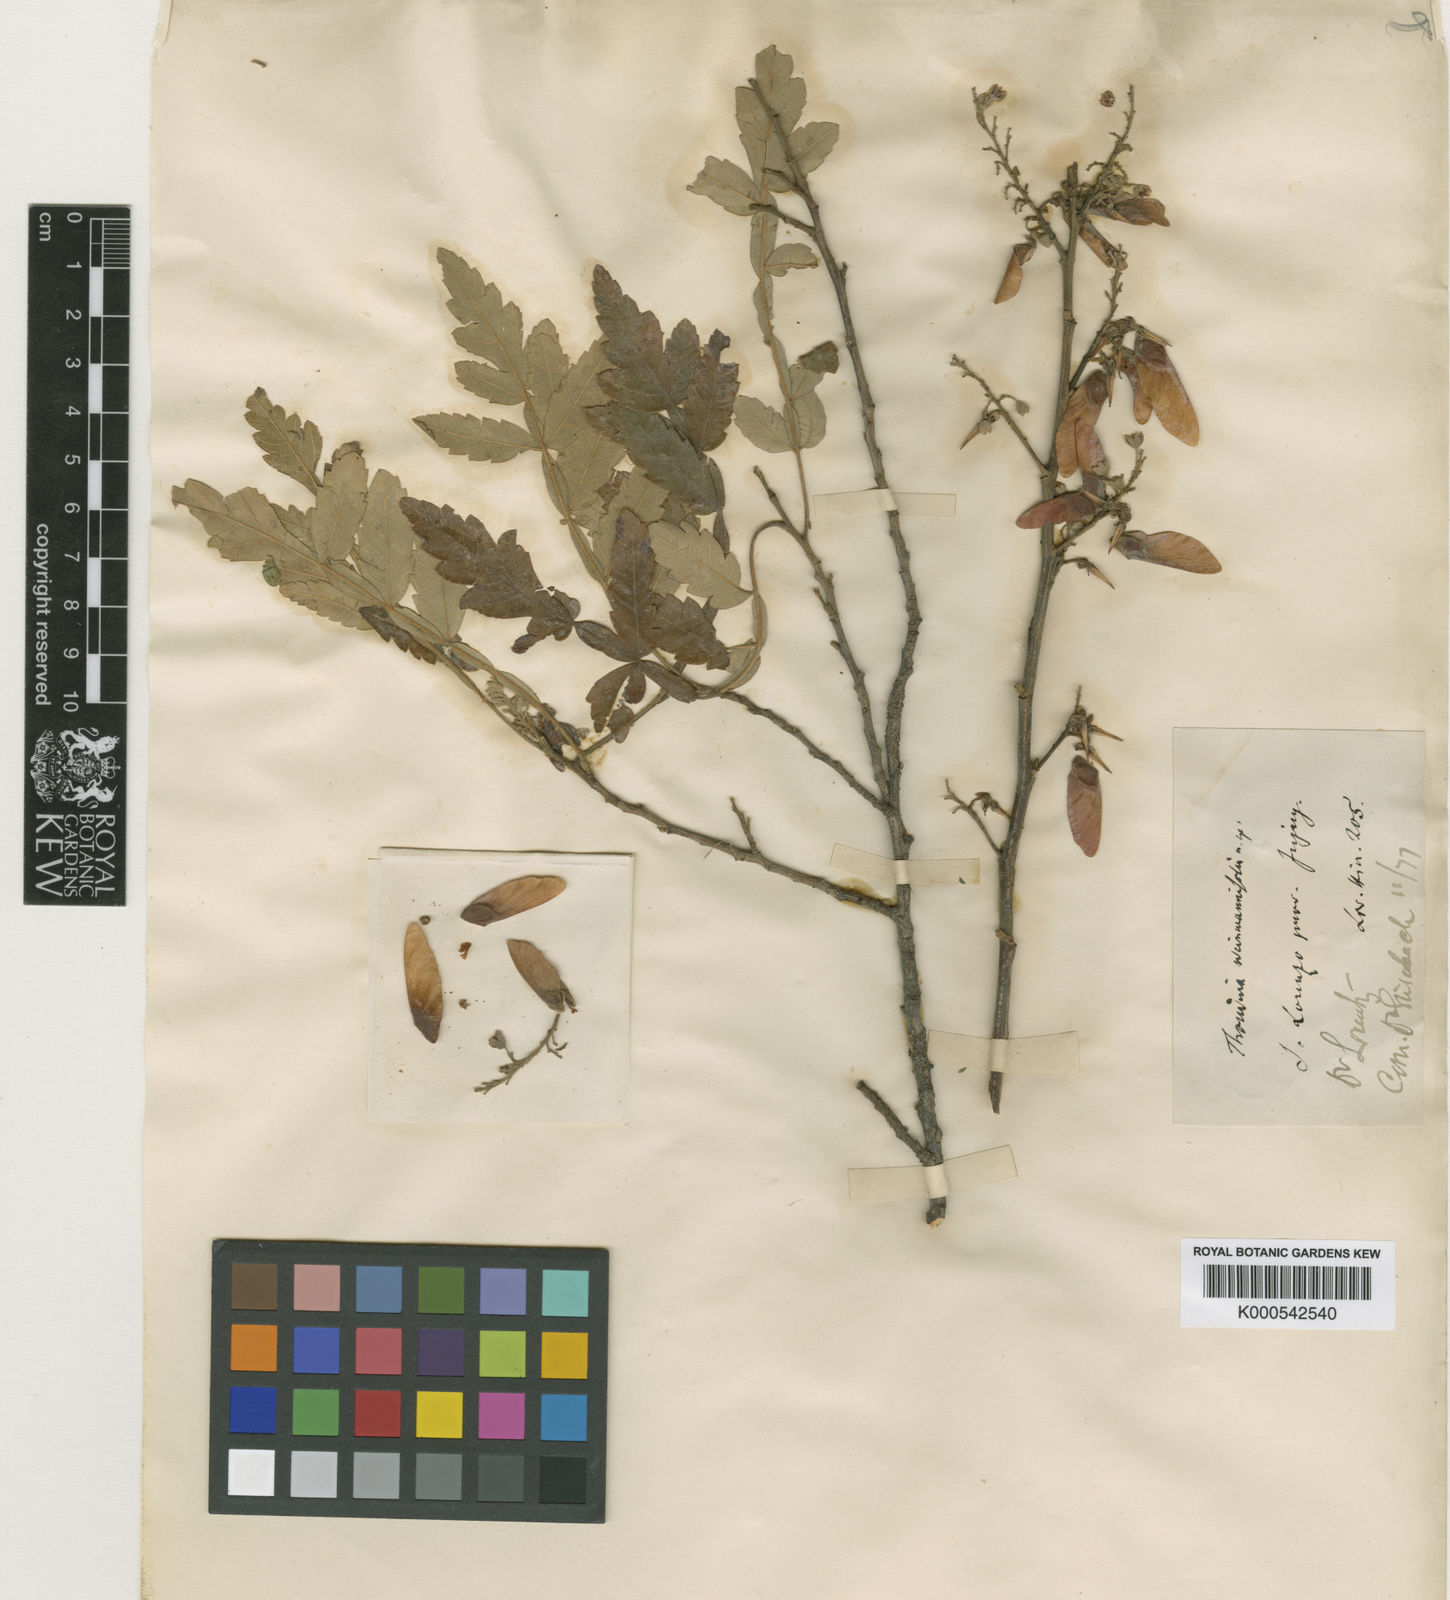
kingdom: Plantae
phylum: Tracheophyta
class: Magnoliopsida
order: Sapindales
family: Sapindaceae
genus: Athyana
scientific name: Athyana weinmanniifolia
